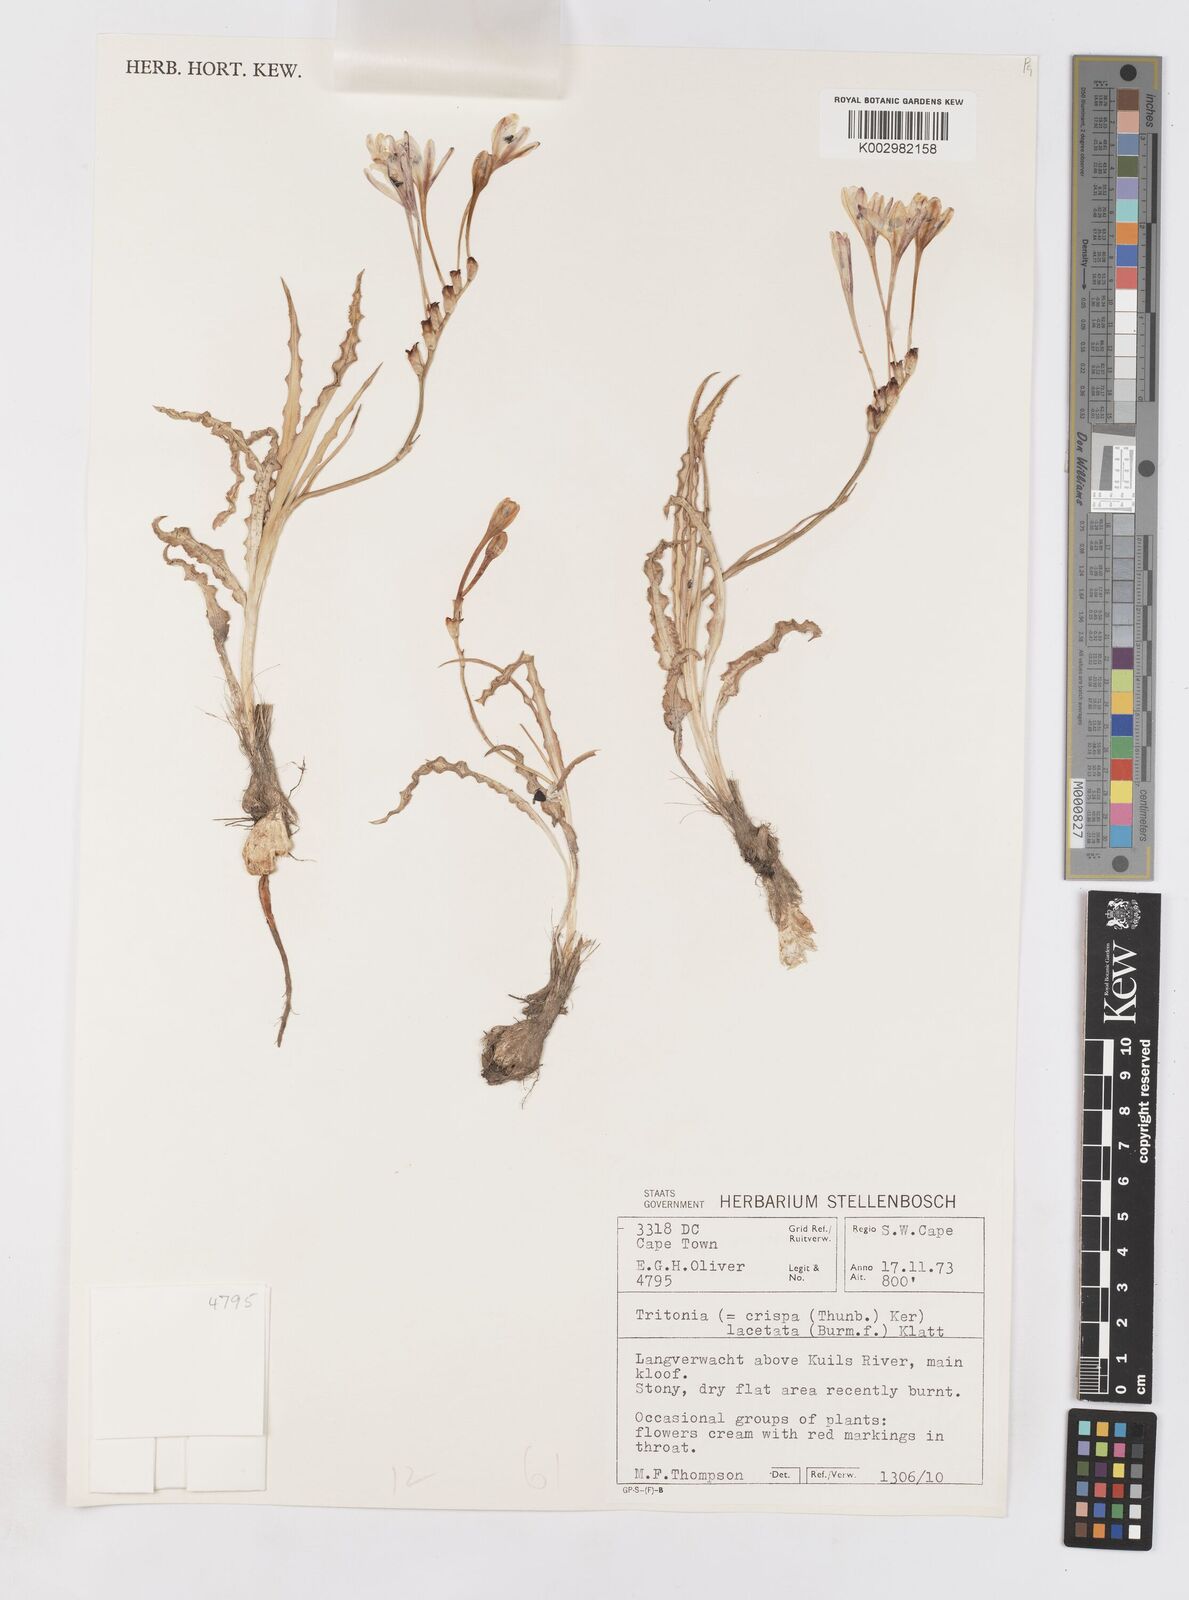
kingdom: Plantae
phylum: Tracheophyta
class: Liliopsida
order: Asparagales
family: Iridaceae
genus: Tritonia
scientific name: Tritonia undulata
